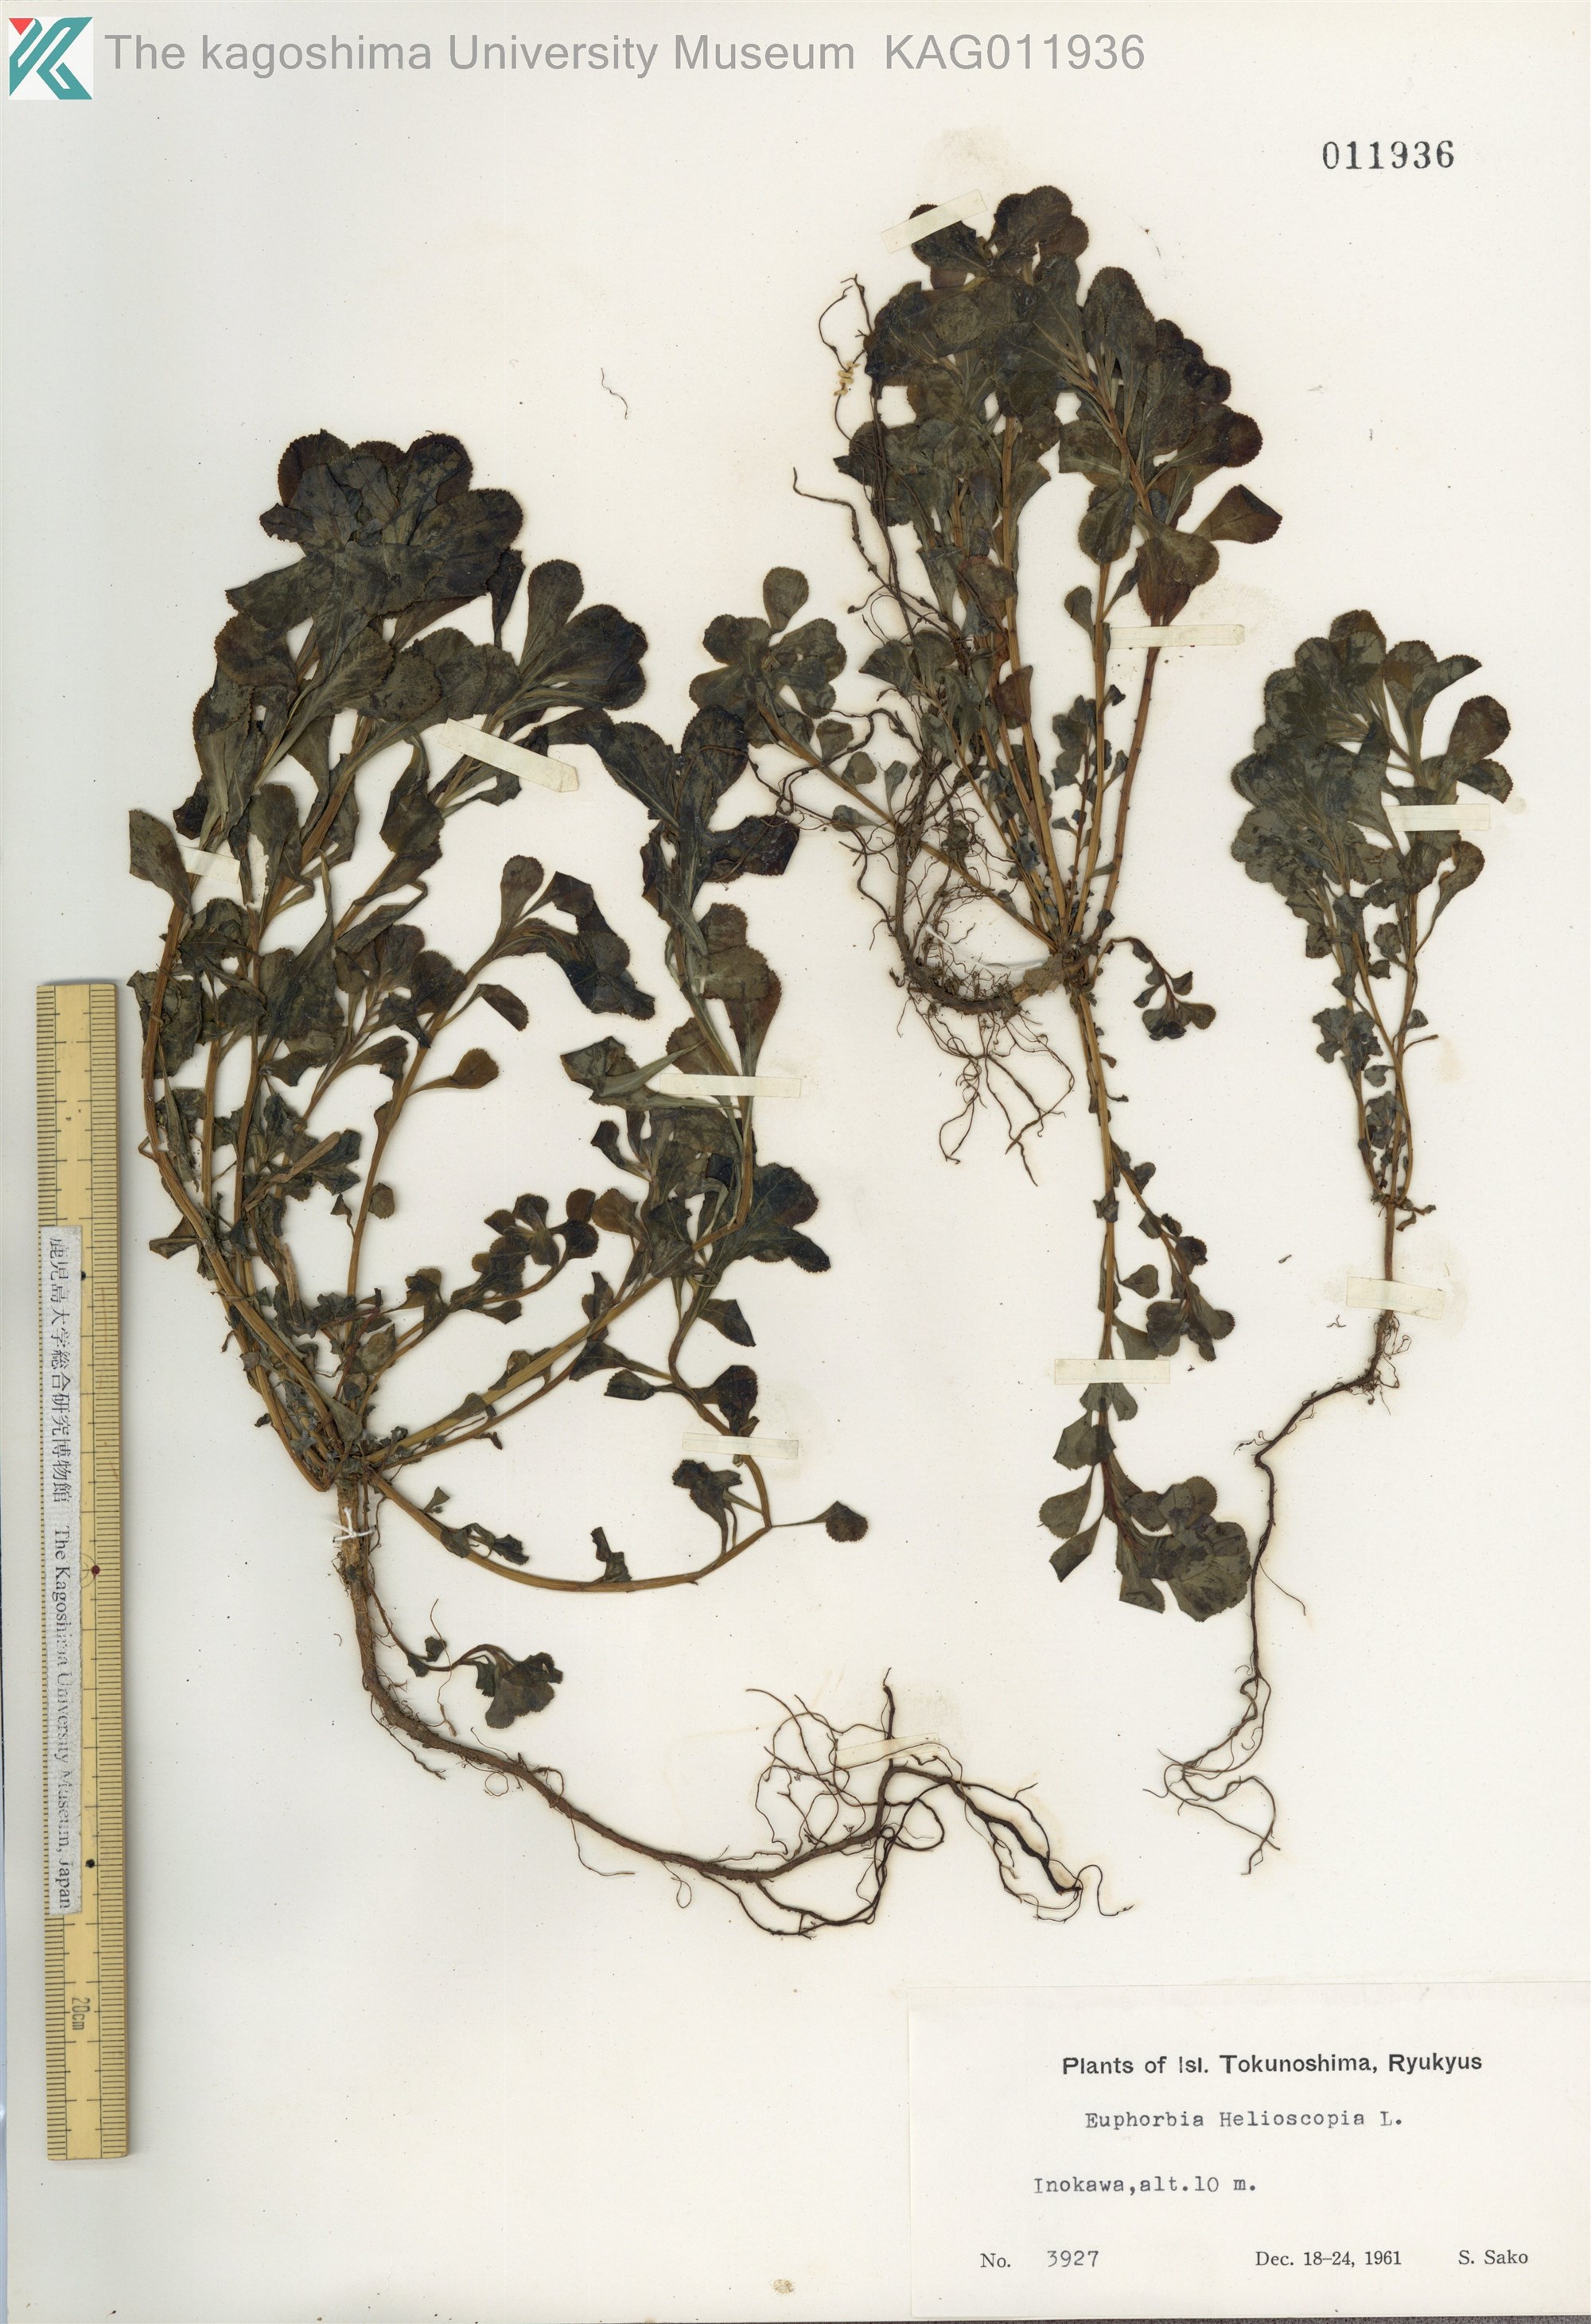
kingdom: Plantae
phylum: Tracheophyta
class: Magnoliopsida
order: Malpighiales
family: Euphorbiaceae
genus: Euphorbia
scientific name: Euphorbia helioscopia
